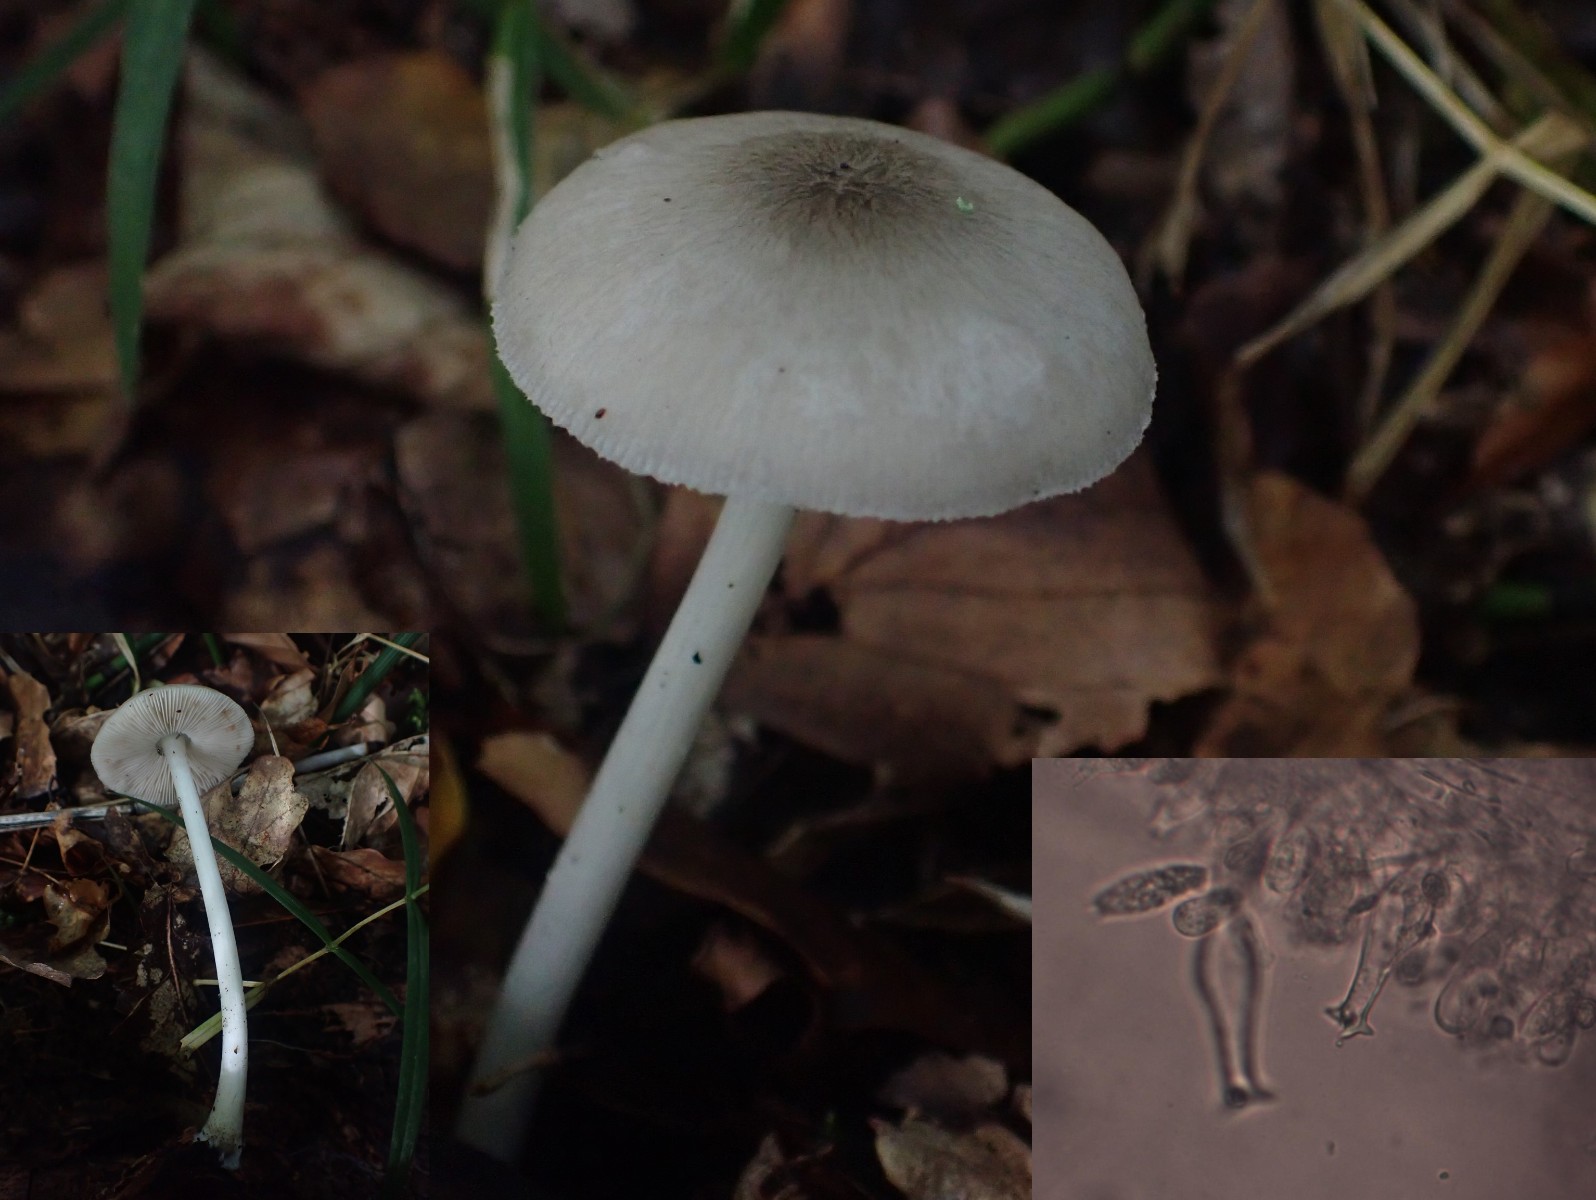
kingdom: Fungi
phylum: Basidiomycota
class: Agaricomycetes
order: Agaricales
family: Pluteaceae
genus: Pluteus
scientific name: Pluteus salicinus
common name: stiv skærmhat
